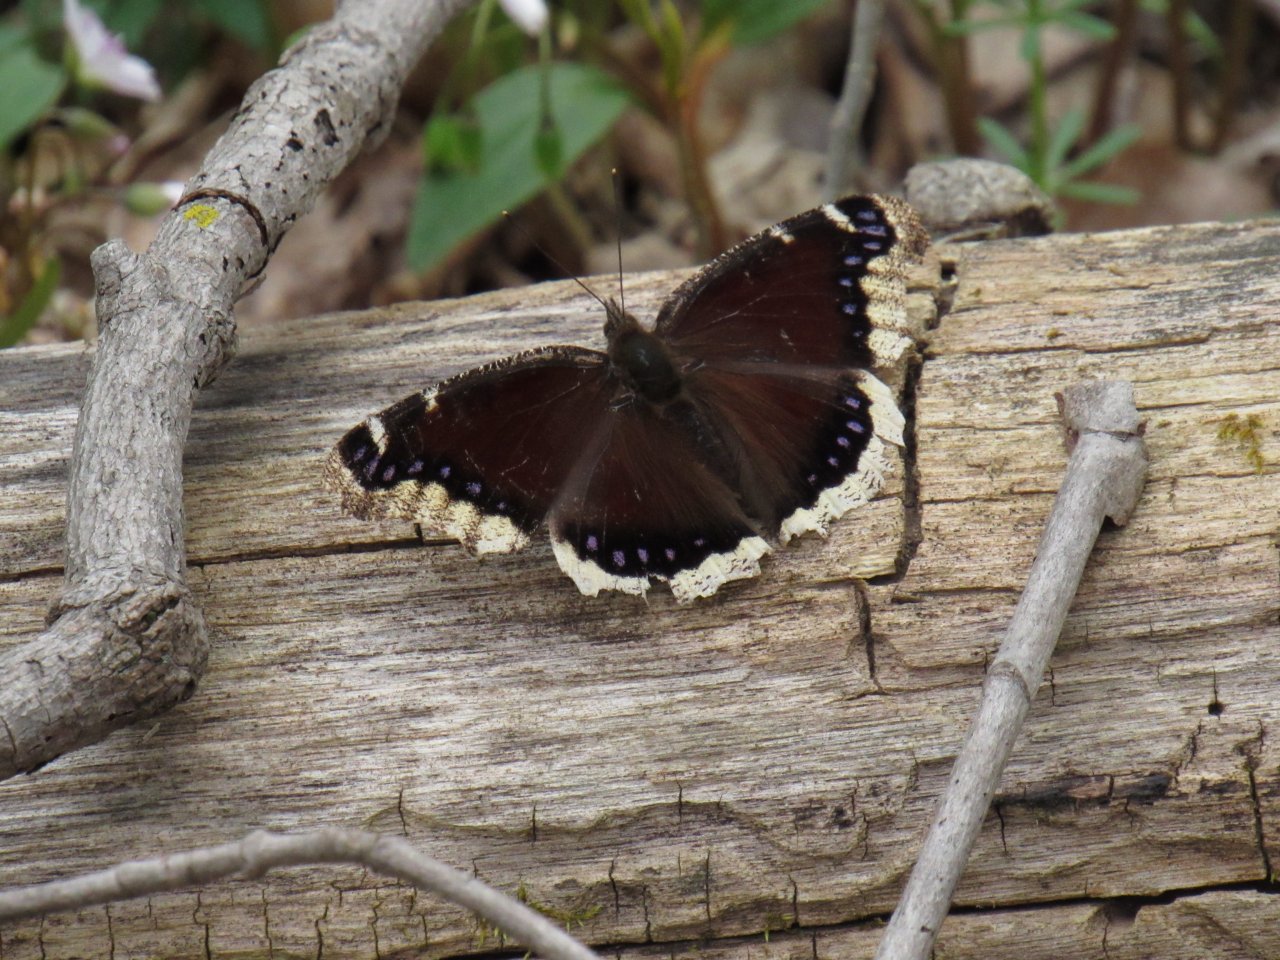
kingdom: Animalia
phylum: Arthropoda
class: Insecta
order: Lepidoptera
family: Nymphalidae
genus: Nymphalis
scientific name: Nymphalis antiopa
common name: Mourning Cloak
